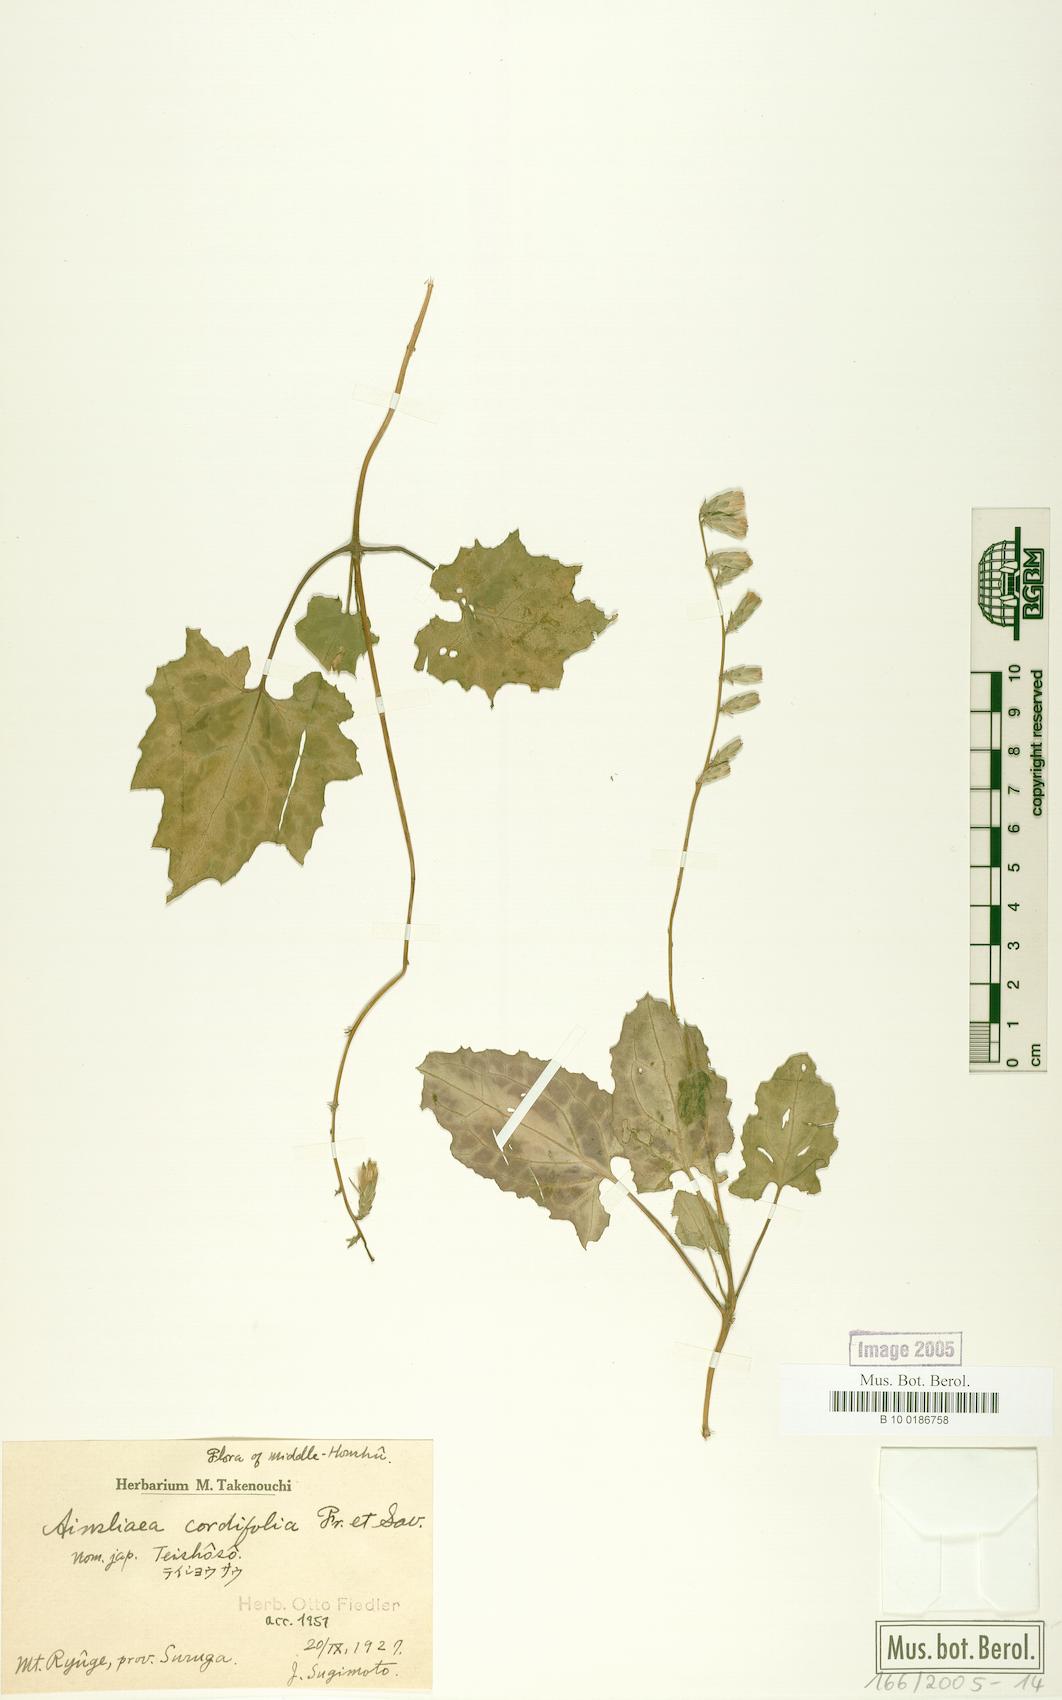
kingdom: Plantae
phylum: Tracheophyta
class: Magnoliopsida
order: Asterales
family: Asteraceae
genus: Ainsliaea
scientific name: Ainsliaea cordifolia
